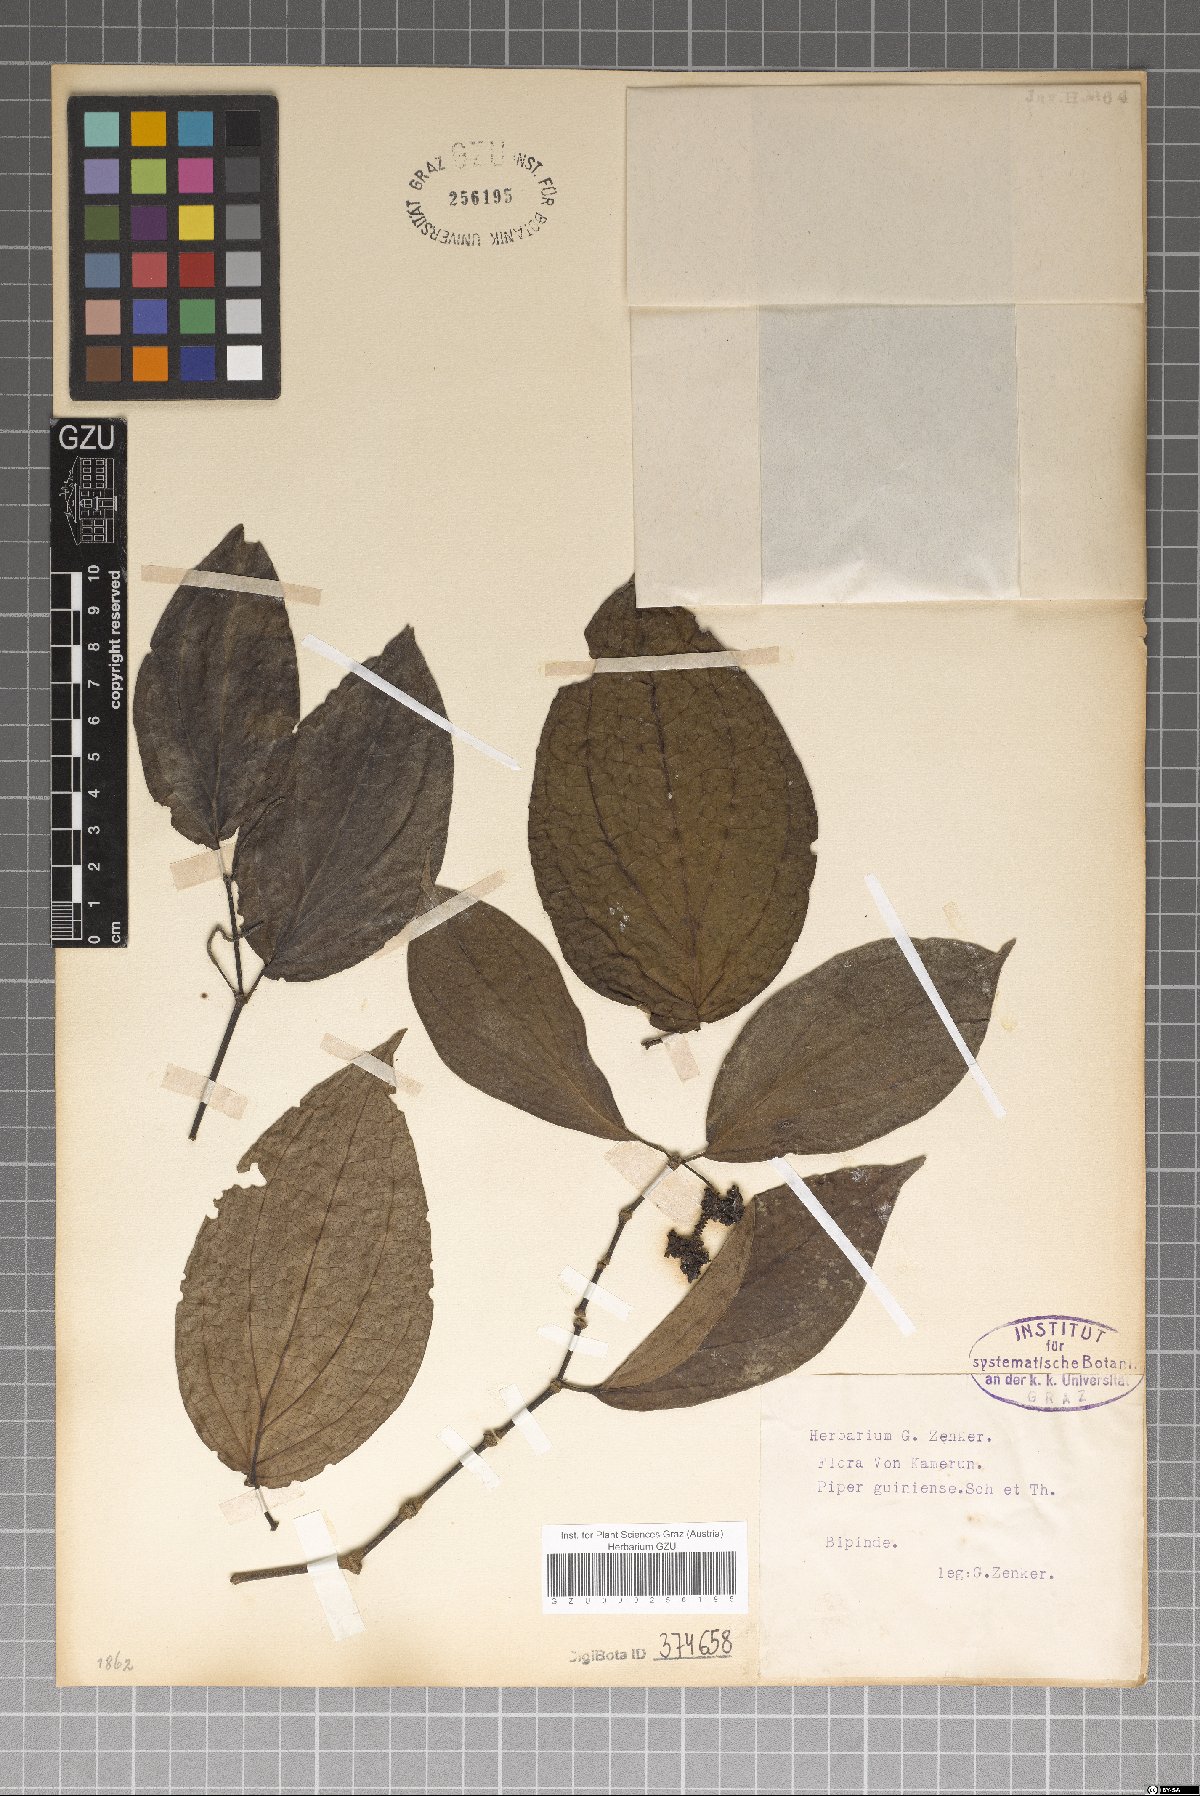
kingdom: Plantae
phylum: Tracheophyta
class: Magnoliopsida
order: Piperales
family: Piperaceae
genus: Piper
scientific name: Piper guineense
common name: Benin pepper
